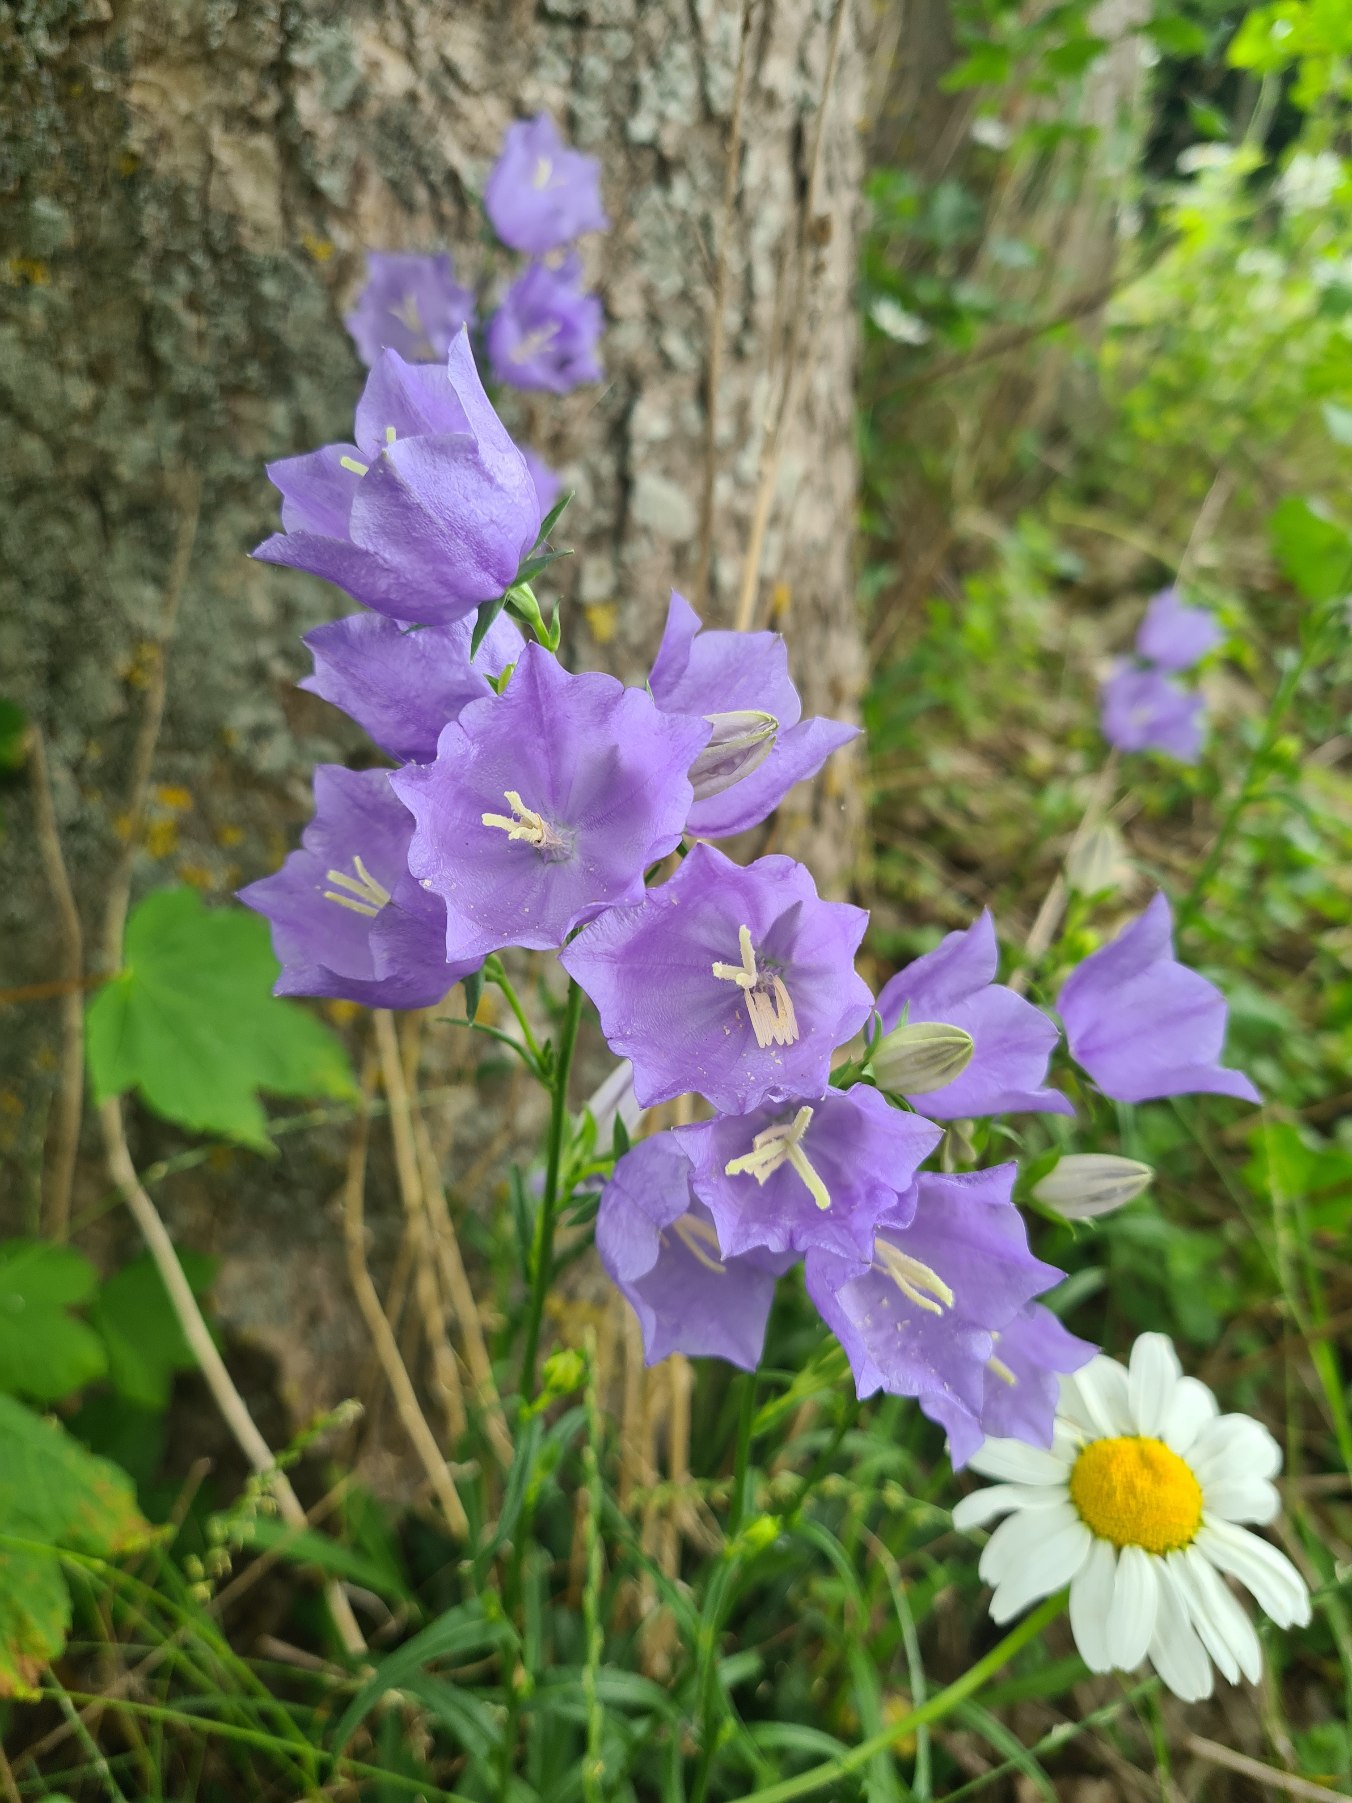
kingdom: Plantae
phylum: Tracheophyta
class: Magnoliopsida
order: Asterales
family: Campanulaceae
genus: Campanula
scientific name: Campanula persicifolia
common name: Smalbladet klokke
